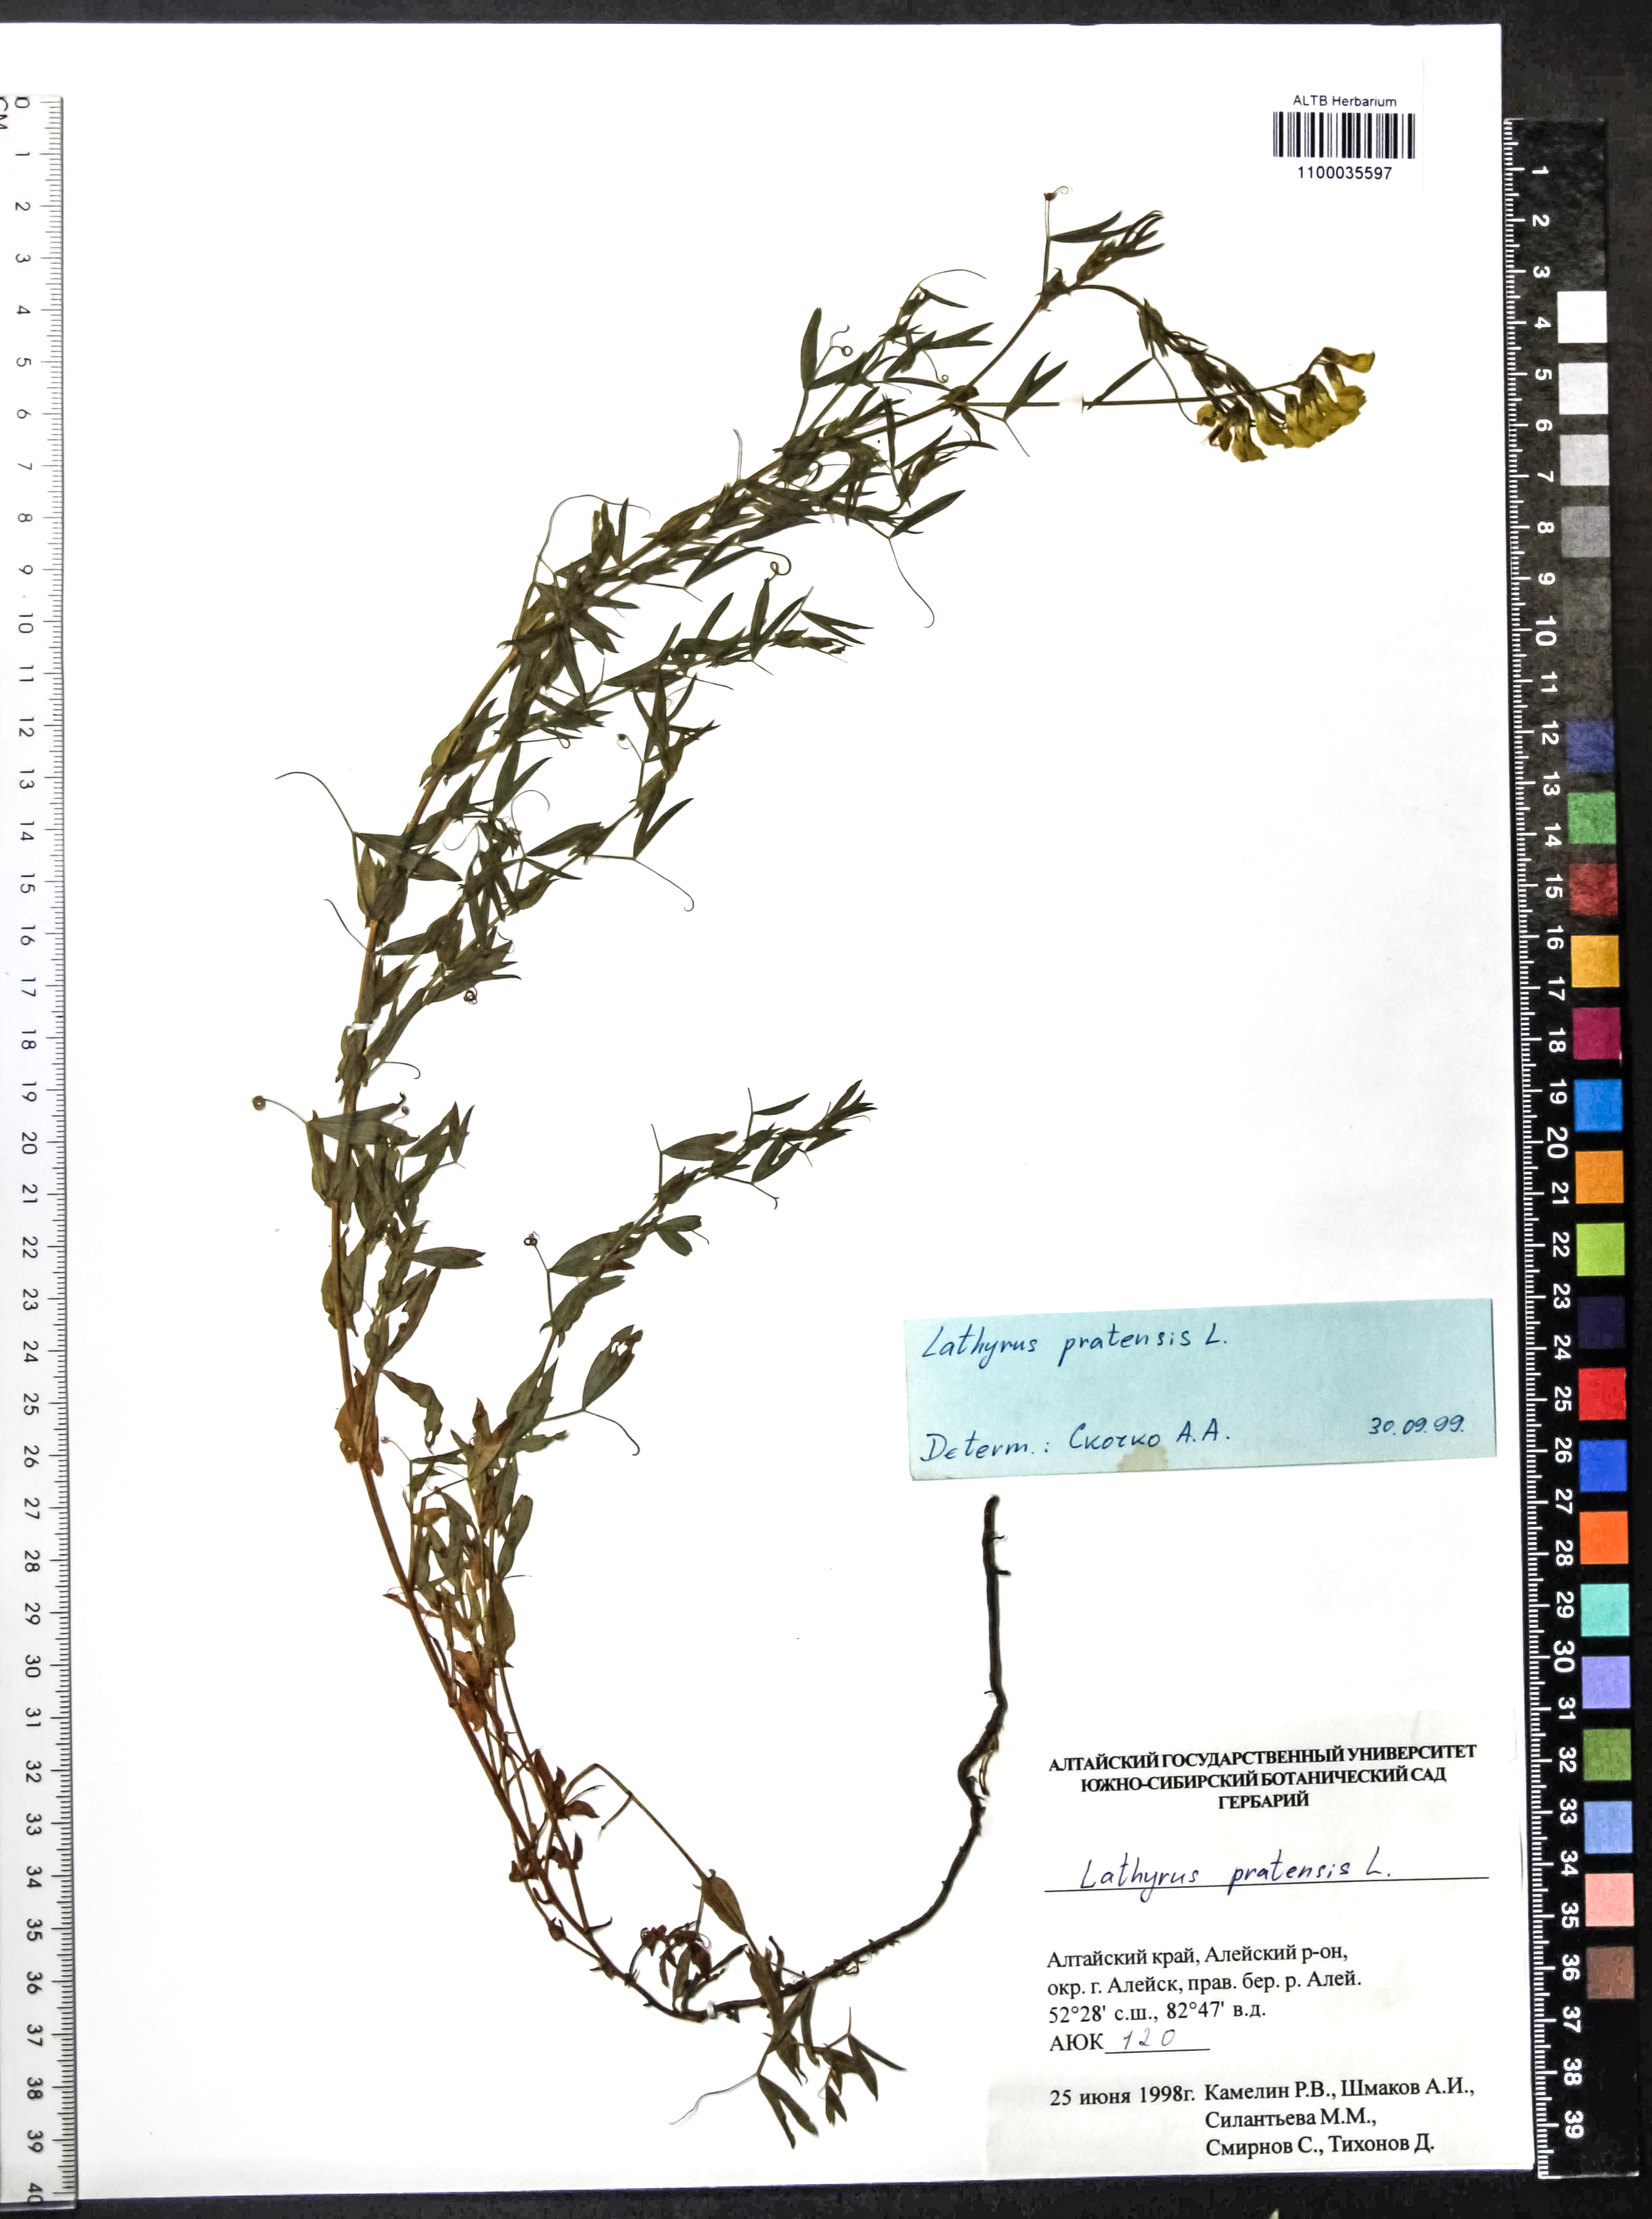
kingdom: Plantae
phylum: Tracheophyta
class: Magnoliopsida
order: Fabales
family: Fabaceae
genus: Lathyrus
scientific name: Lathyrus pratensis
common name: Meadow vetchling
